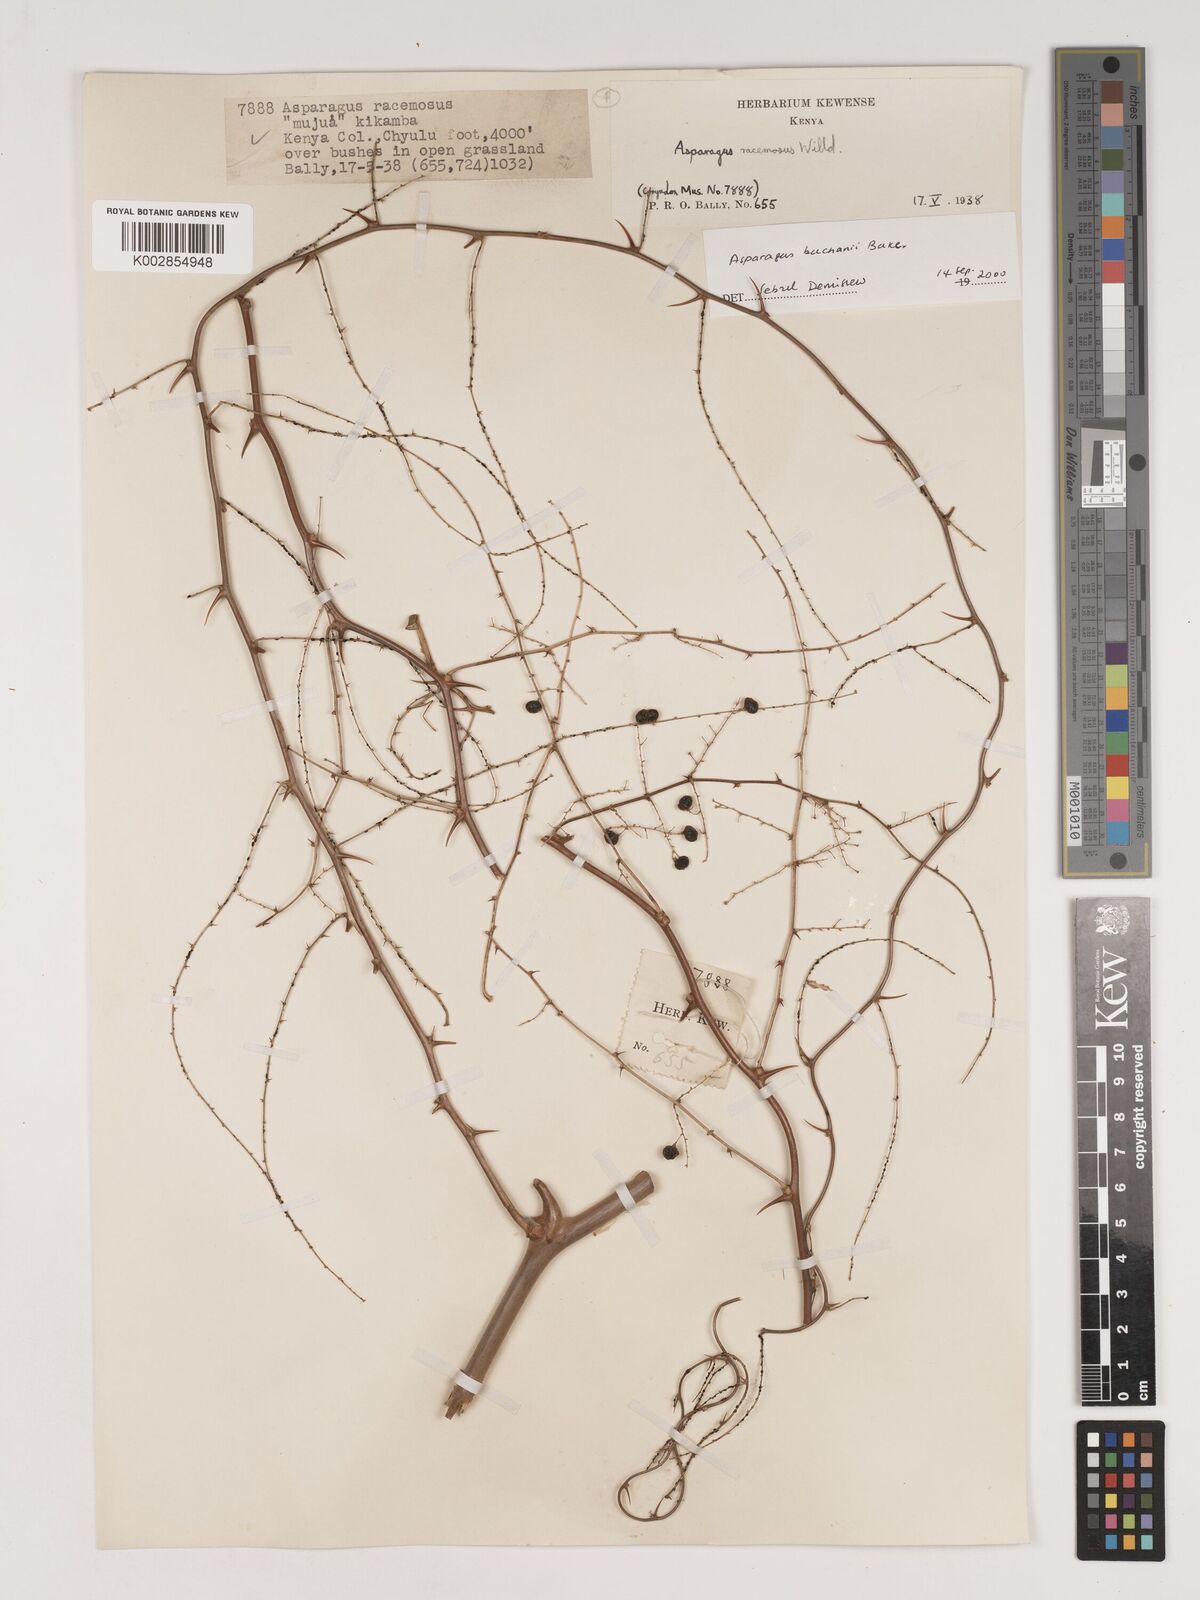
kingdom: Plantae
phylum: Tracheophyta
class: Liliopsida
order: Asparagales
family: Asparagaceae
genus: Asparagus
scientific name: Asparagus buchananii
